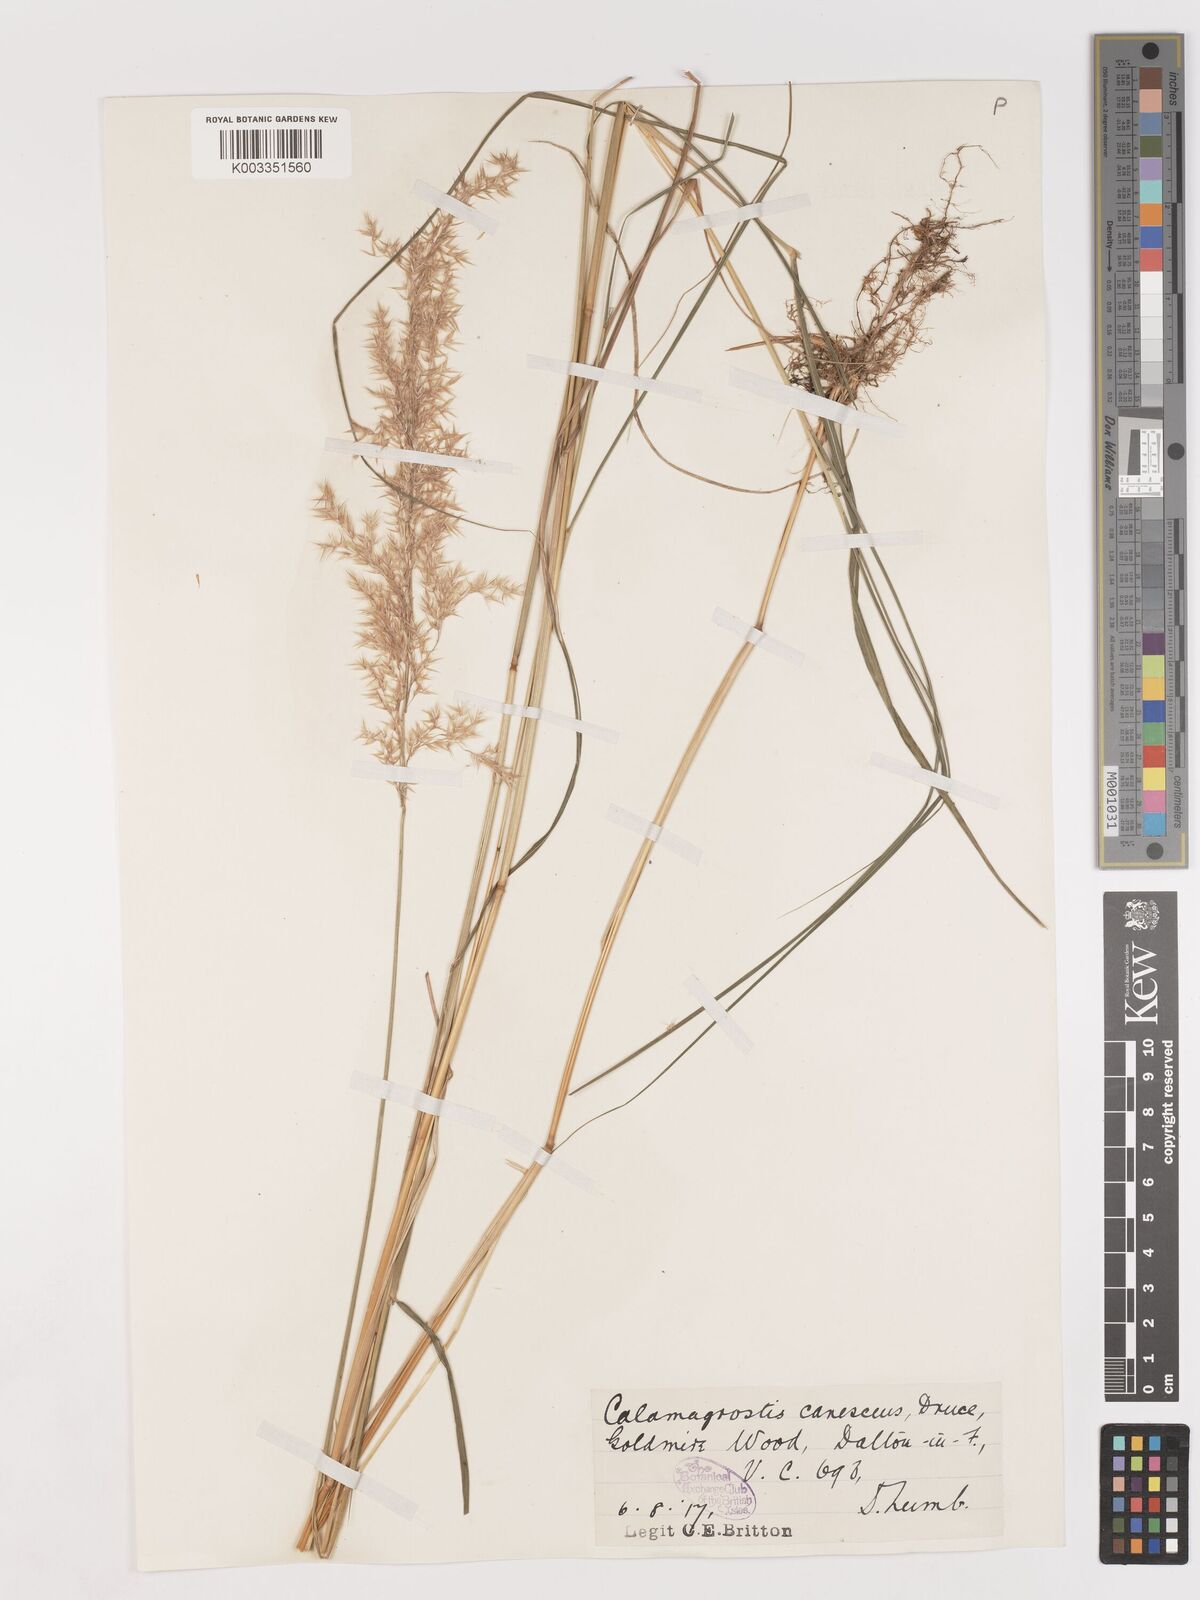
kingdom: Plantae
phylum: Tracheophyta
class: Liliopsida
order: Poales
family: Poaceae
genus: Calamagrostis
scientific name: Calamagrostis canescens
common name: Purple small-reed
